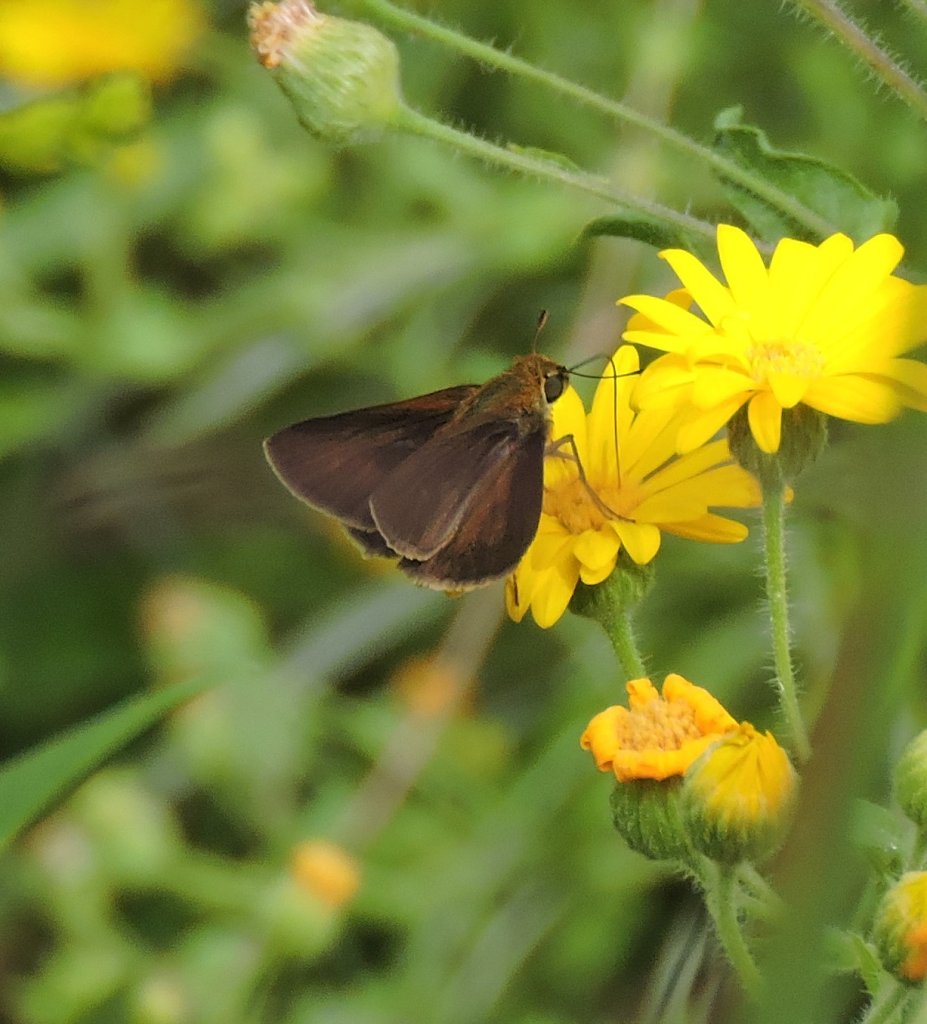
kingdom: Animalia
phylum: Arthropoda
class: Insecta
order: Lepidoptera
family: Hesperiidae
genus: Euphyes
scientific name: Euphyes vestris
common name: Dun Skipper
